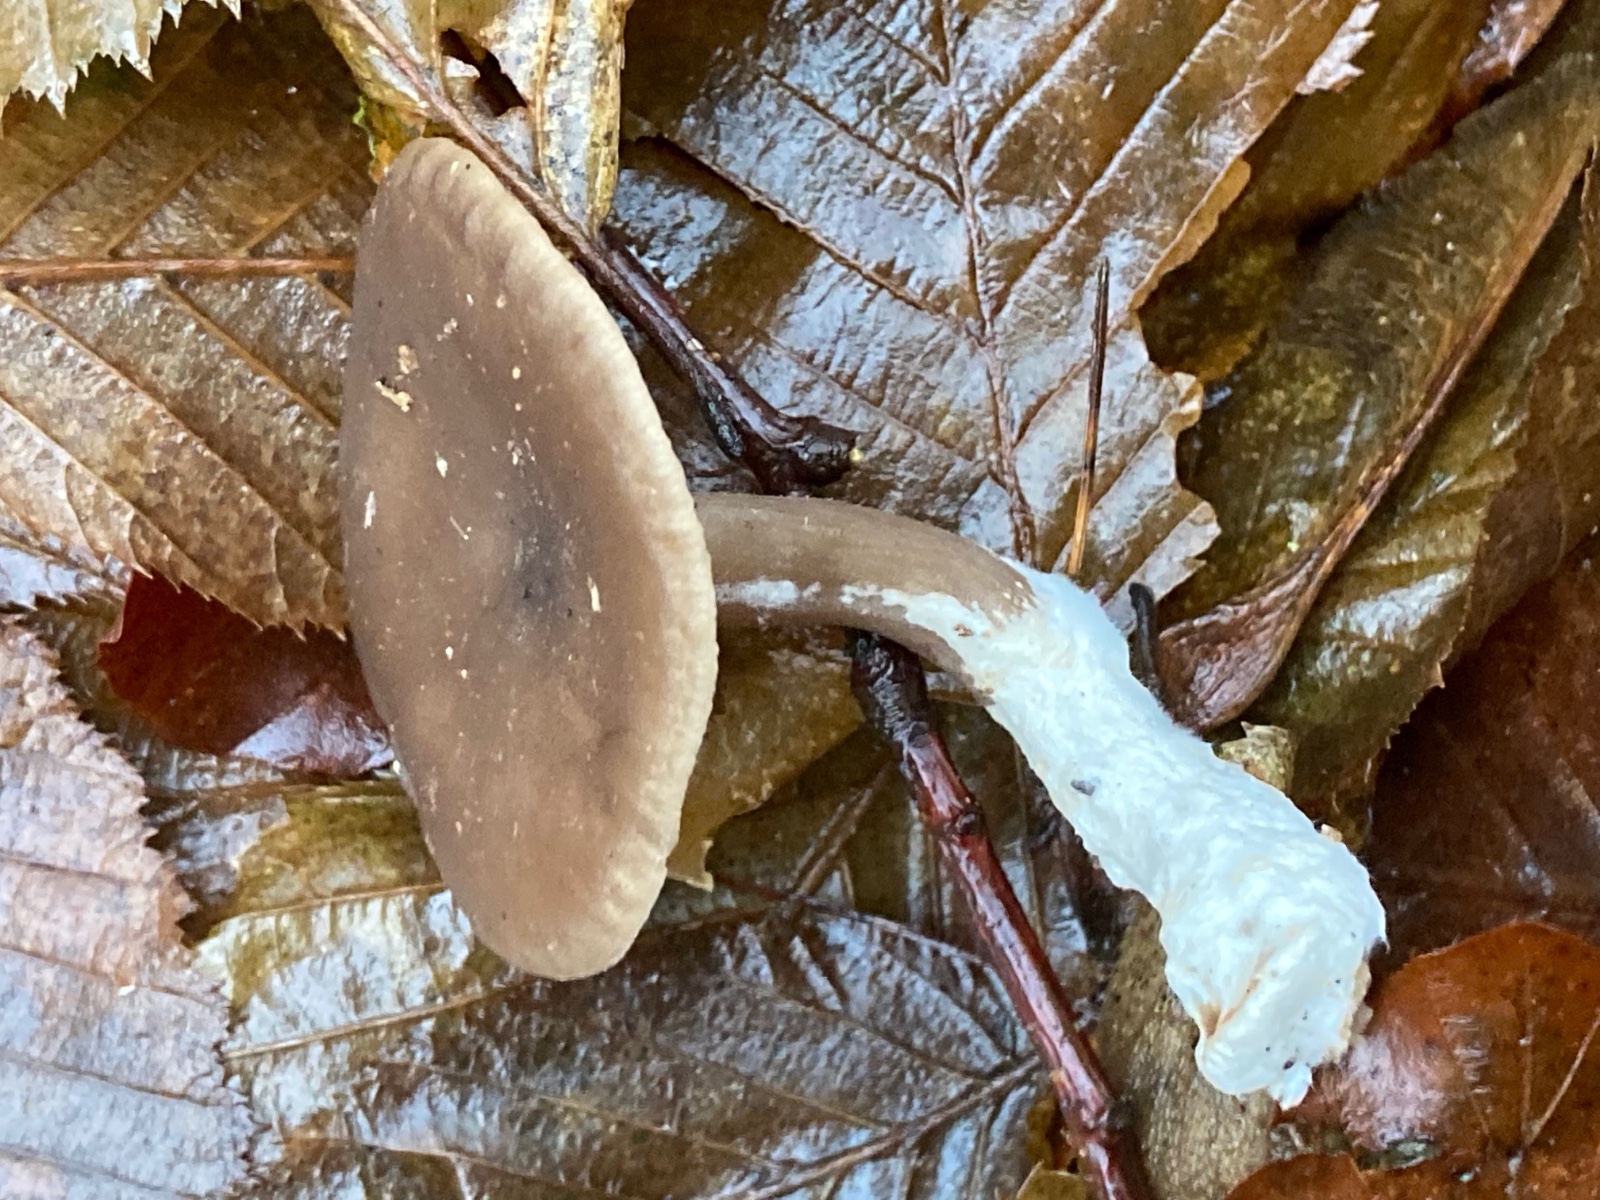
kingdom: Fungi
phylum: Basidiomycota
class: Agaricomycetes
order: Agaricales
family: Pseudoclitocybaceae
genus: Pseudoclitocybe
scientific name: Pseudoclitocybe cyathiformis
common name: almindelig bægertragthat
